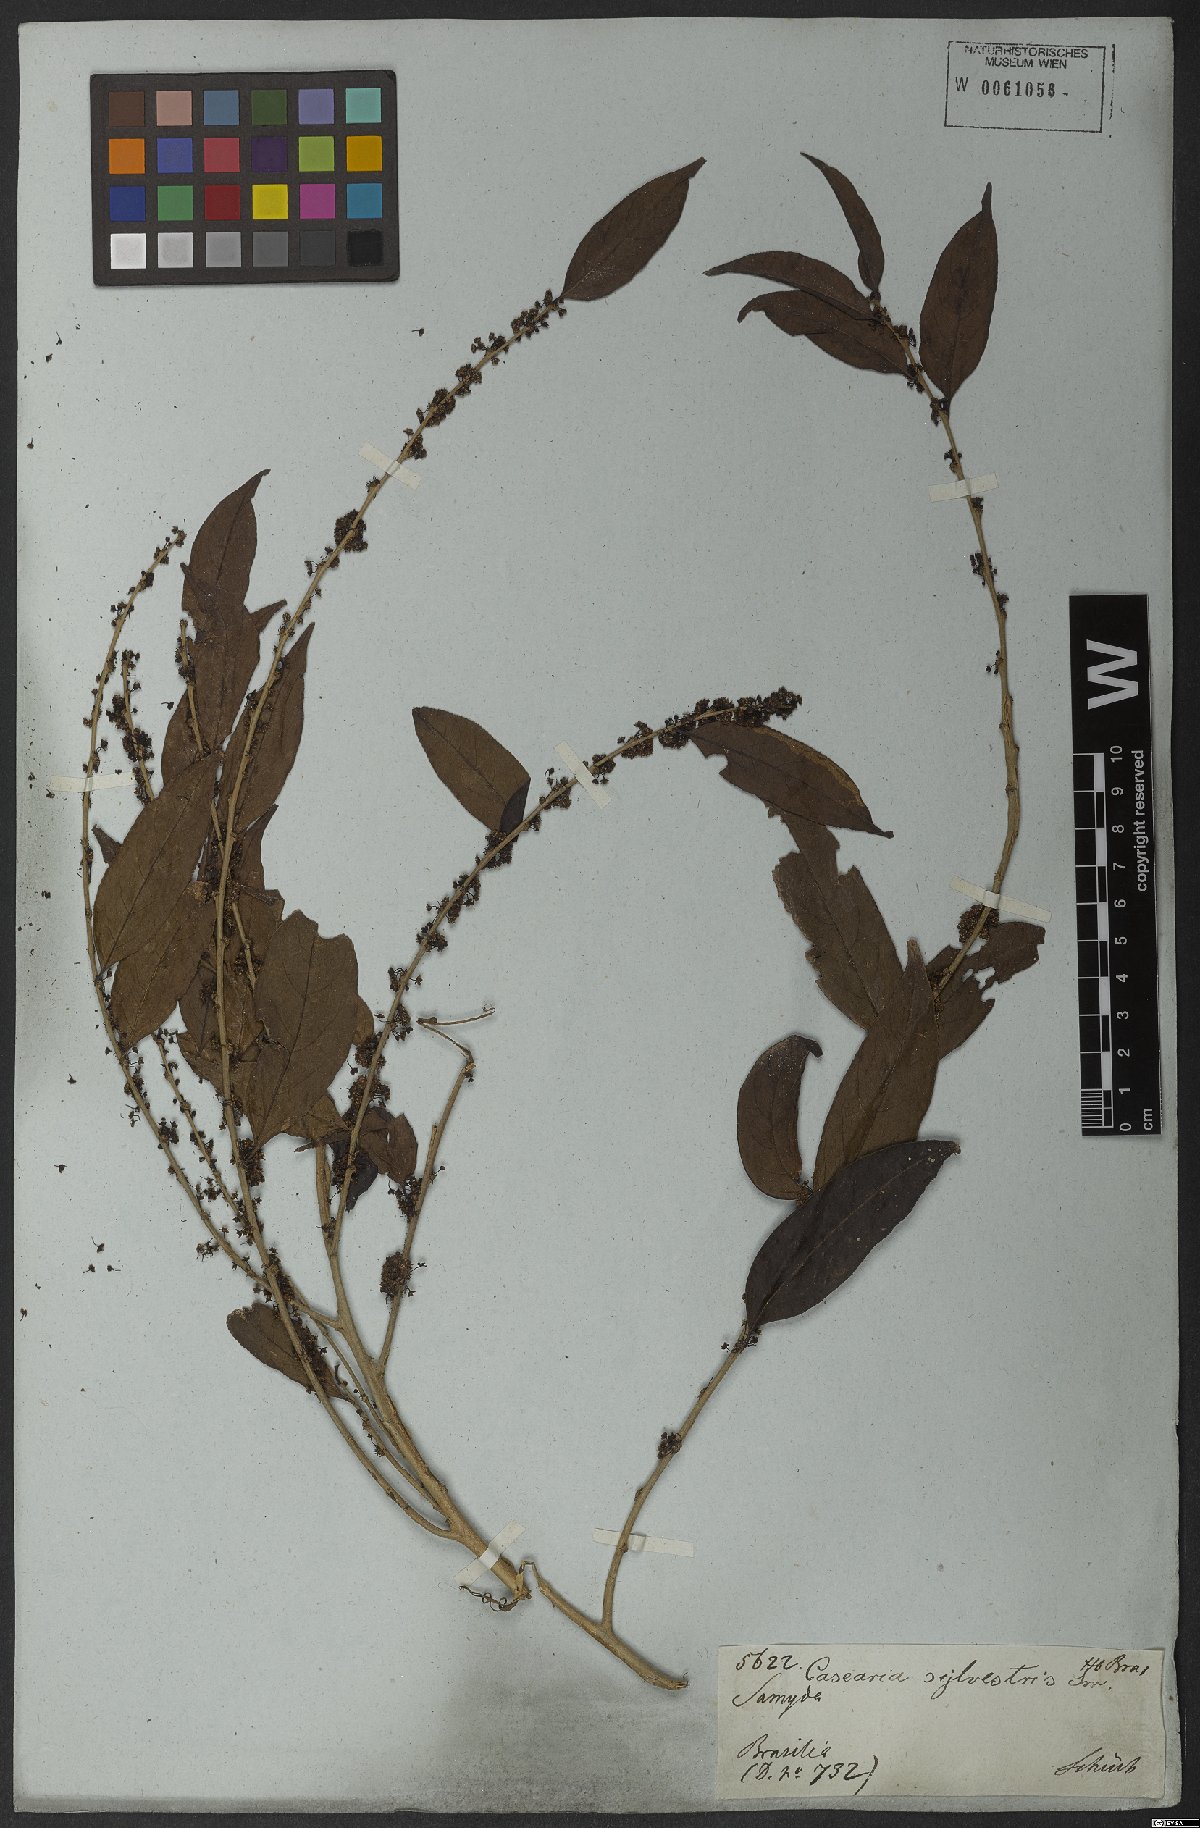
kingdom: Plantae
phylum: Tracheophyta
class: Magnoliopsida
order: Malpighiales
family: Salicaceae
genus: Casearia
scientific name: Casearia sylvestris
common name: Wild sage
